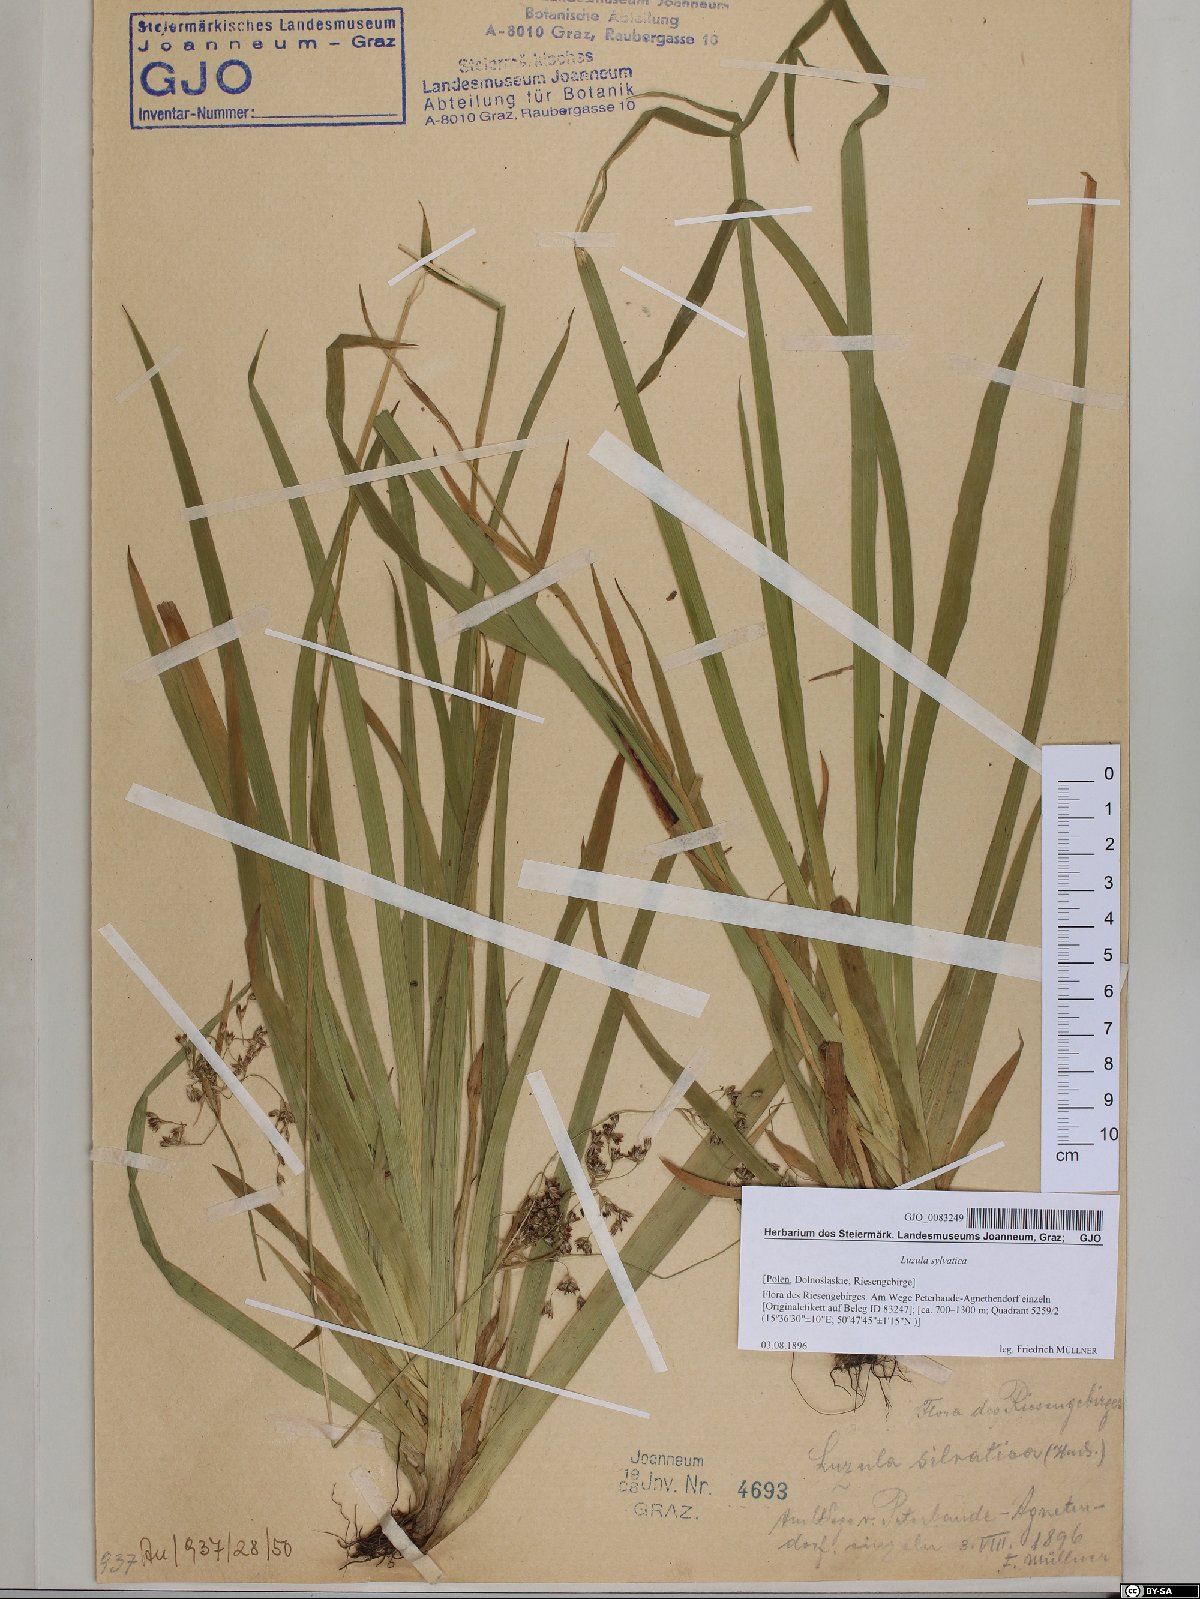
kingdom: Plantae
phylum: Tracheophyta
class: Liliopsida
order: Poales
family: Juncaceae
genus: Luzula
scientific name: Luzula sylvatica
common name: Great wood-rush
